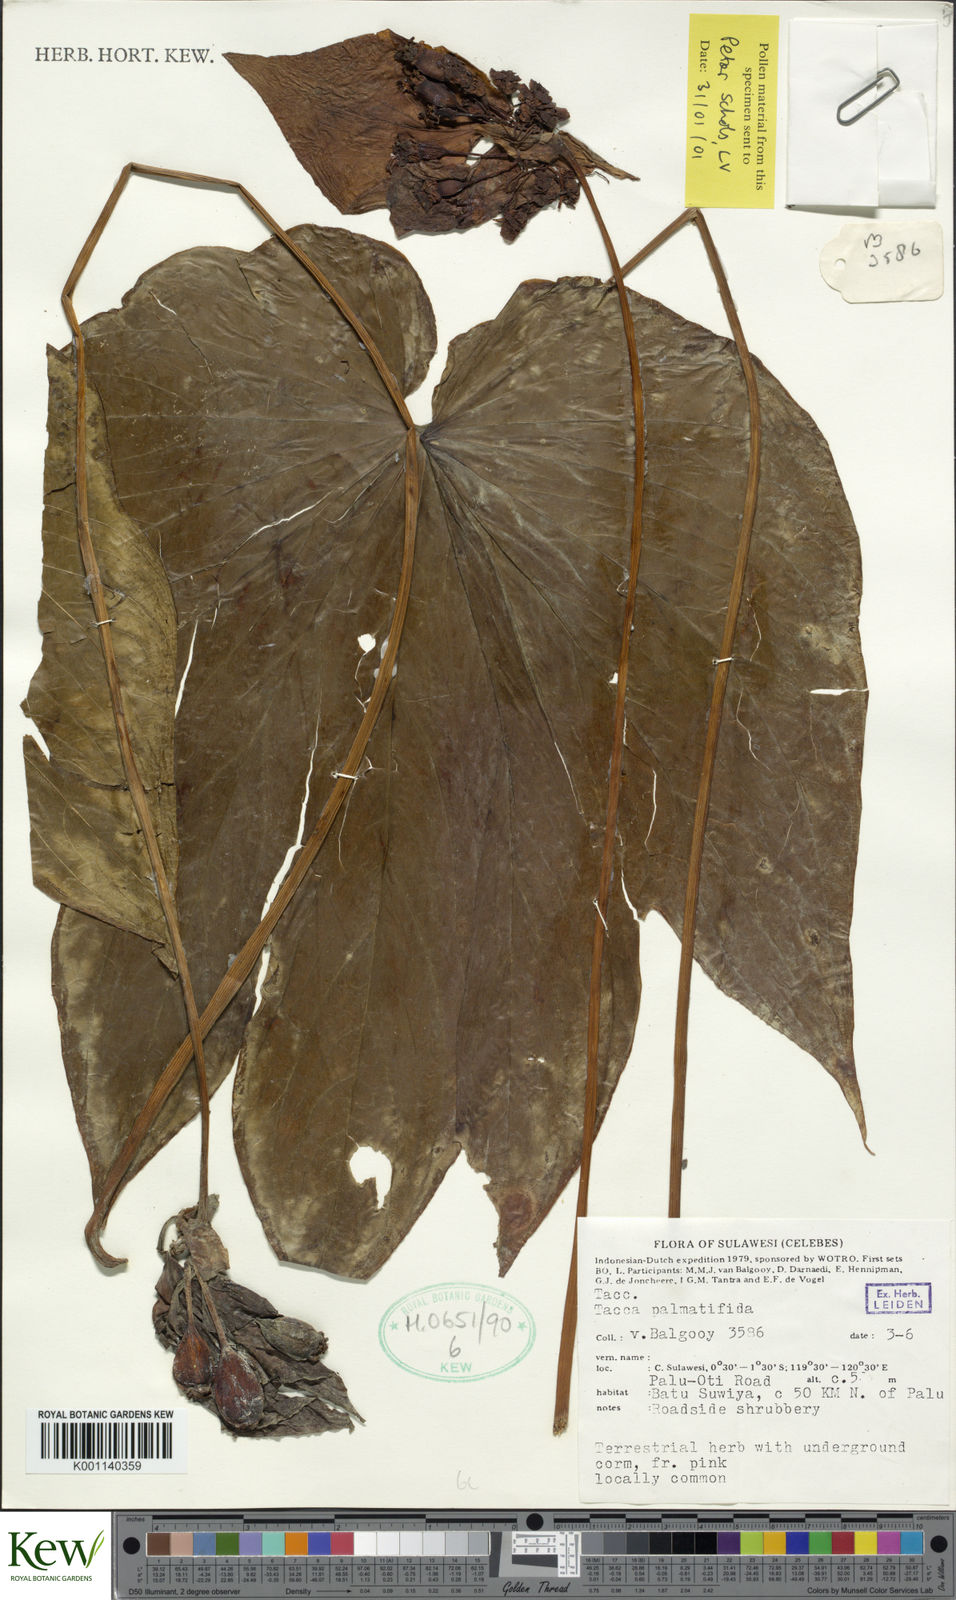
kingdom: Plantae
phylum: Tracheophyta
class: Liliopsida
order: Dioscoreales
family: Dioscoreaceae
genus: Tacca
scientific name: Tacca palmatifida
